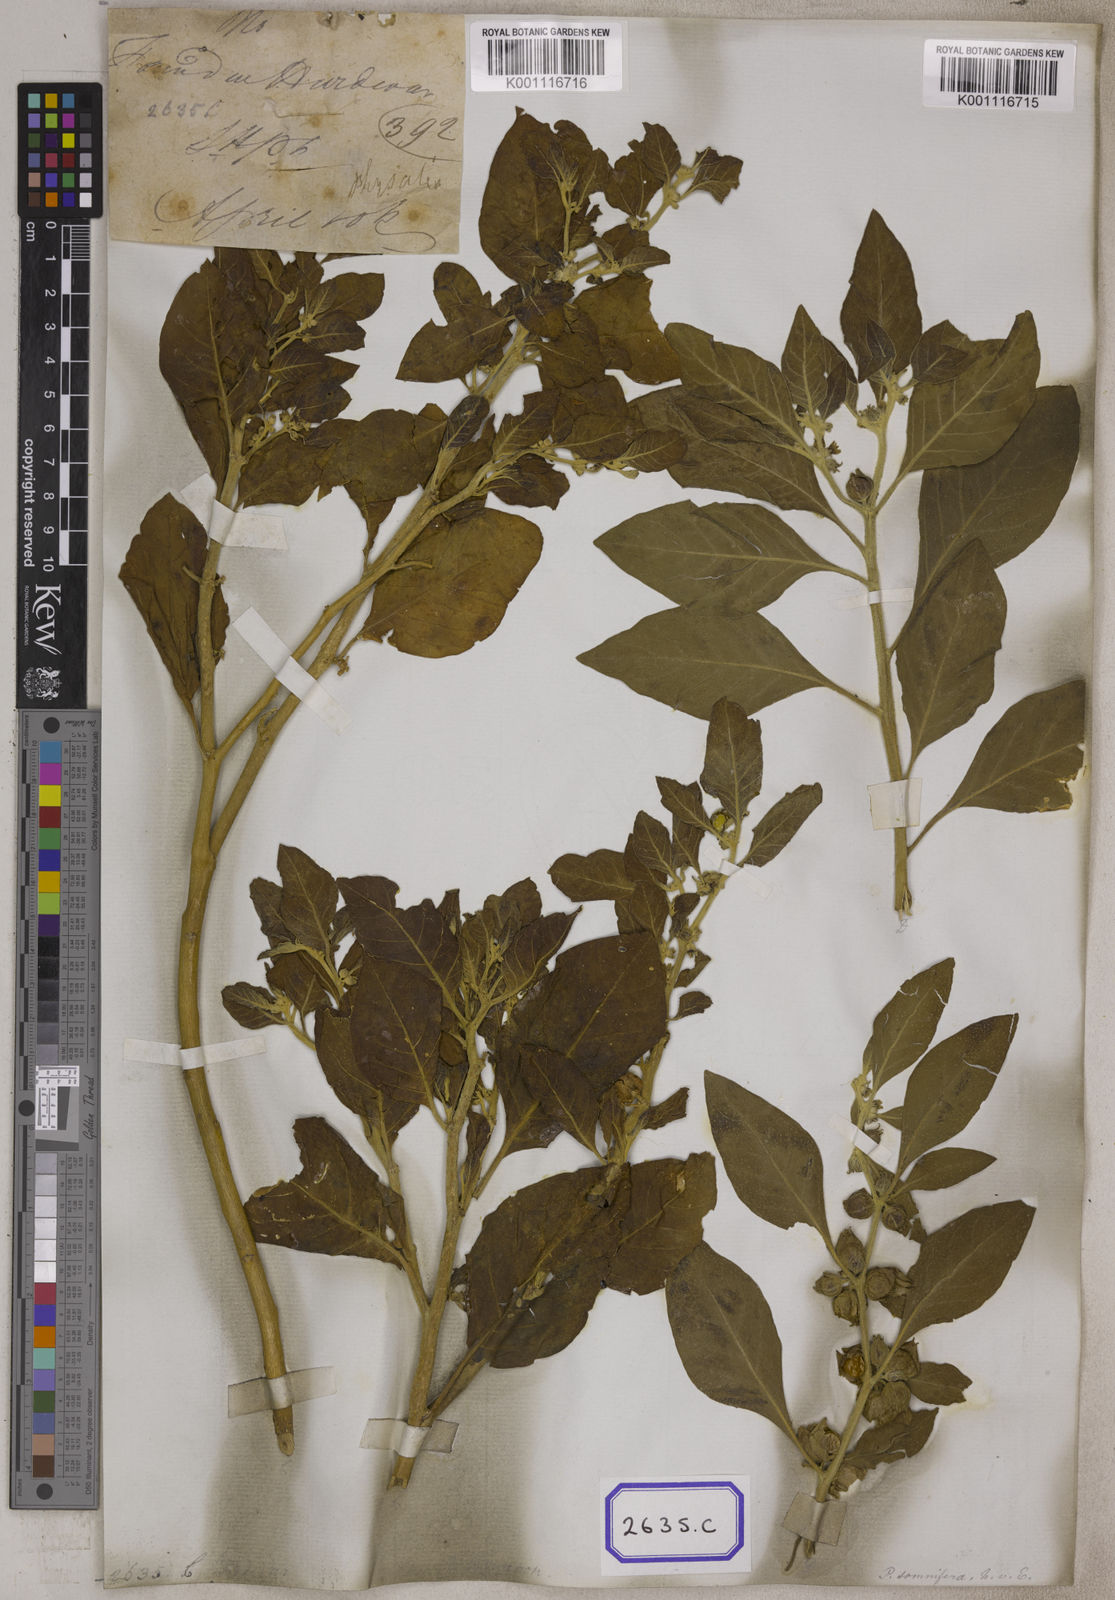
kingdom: Plantae
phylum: Tracheophyta
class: Magnoliopsida
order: Solanales
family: Solanaceae
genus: Withania
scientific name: Withania somnifera
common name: Winter-cherry
